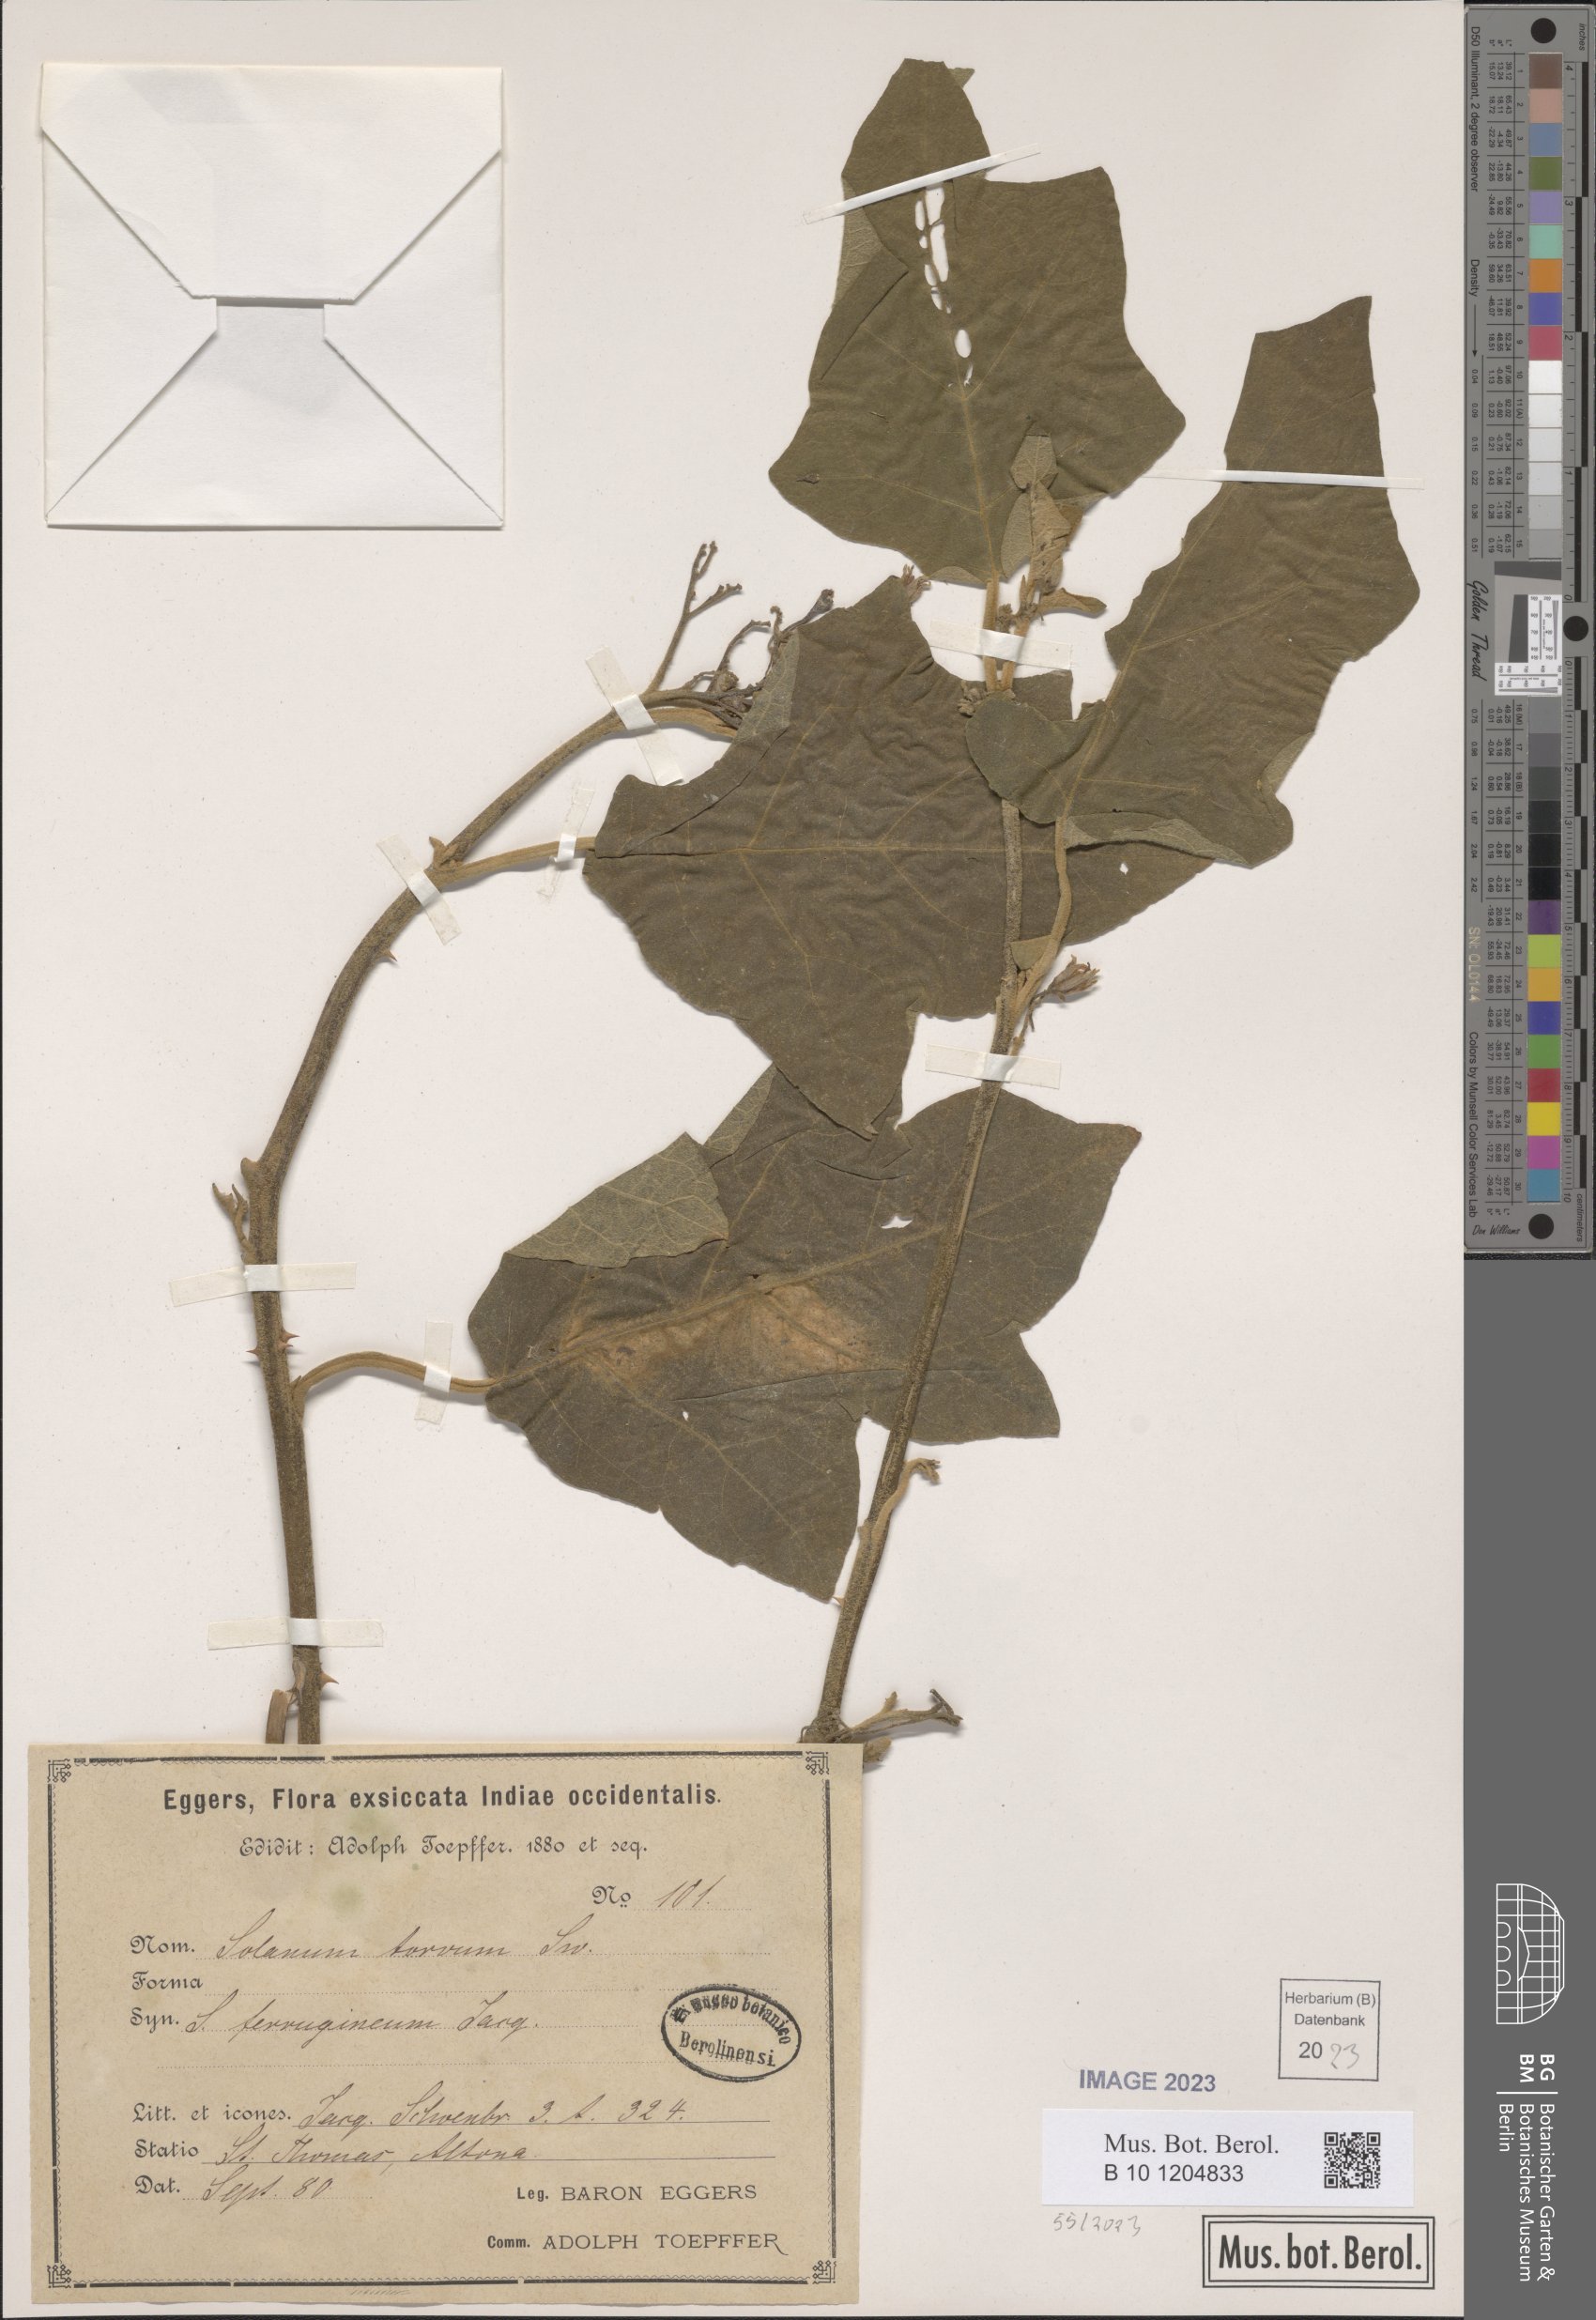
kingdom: Plantae
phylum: Tracheophyta
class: Magnoliopsida
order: Solanales
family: Solanaceae
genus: Solanum
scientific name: Solanum torvum
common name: Turkey berry
